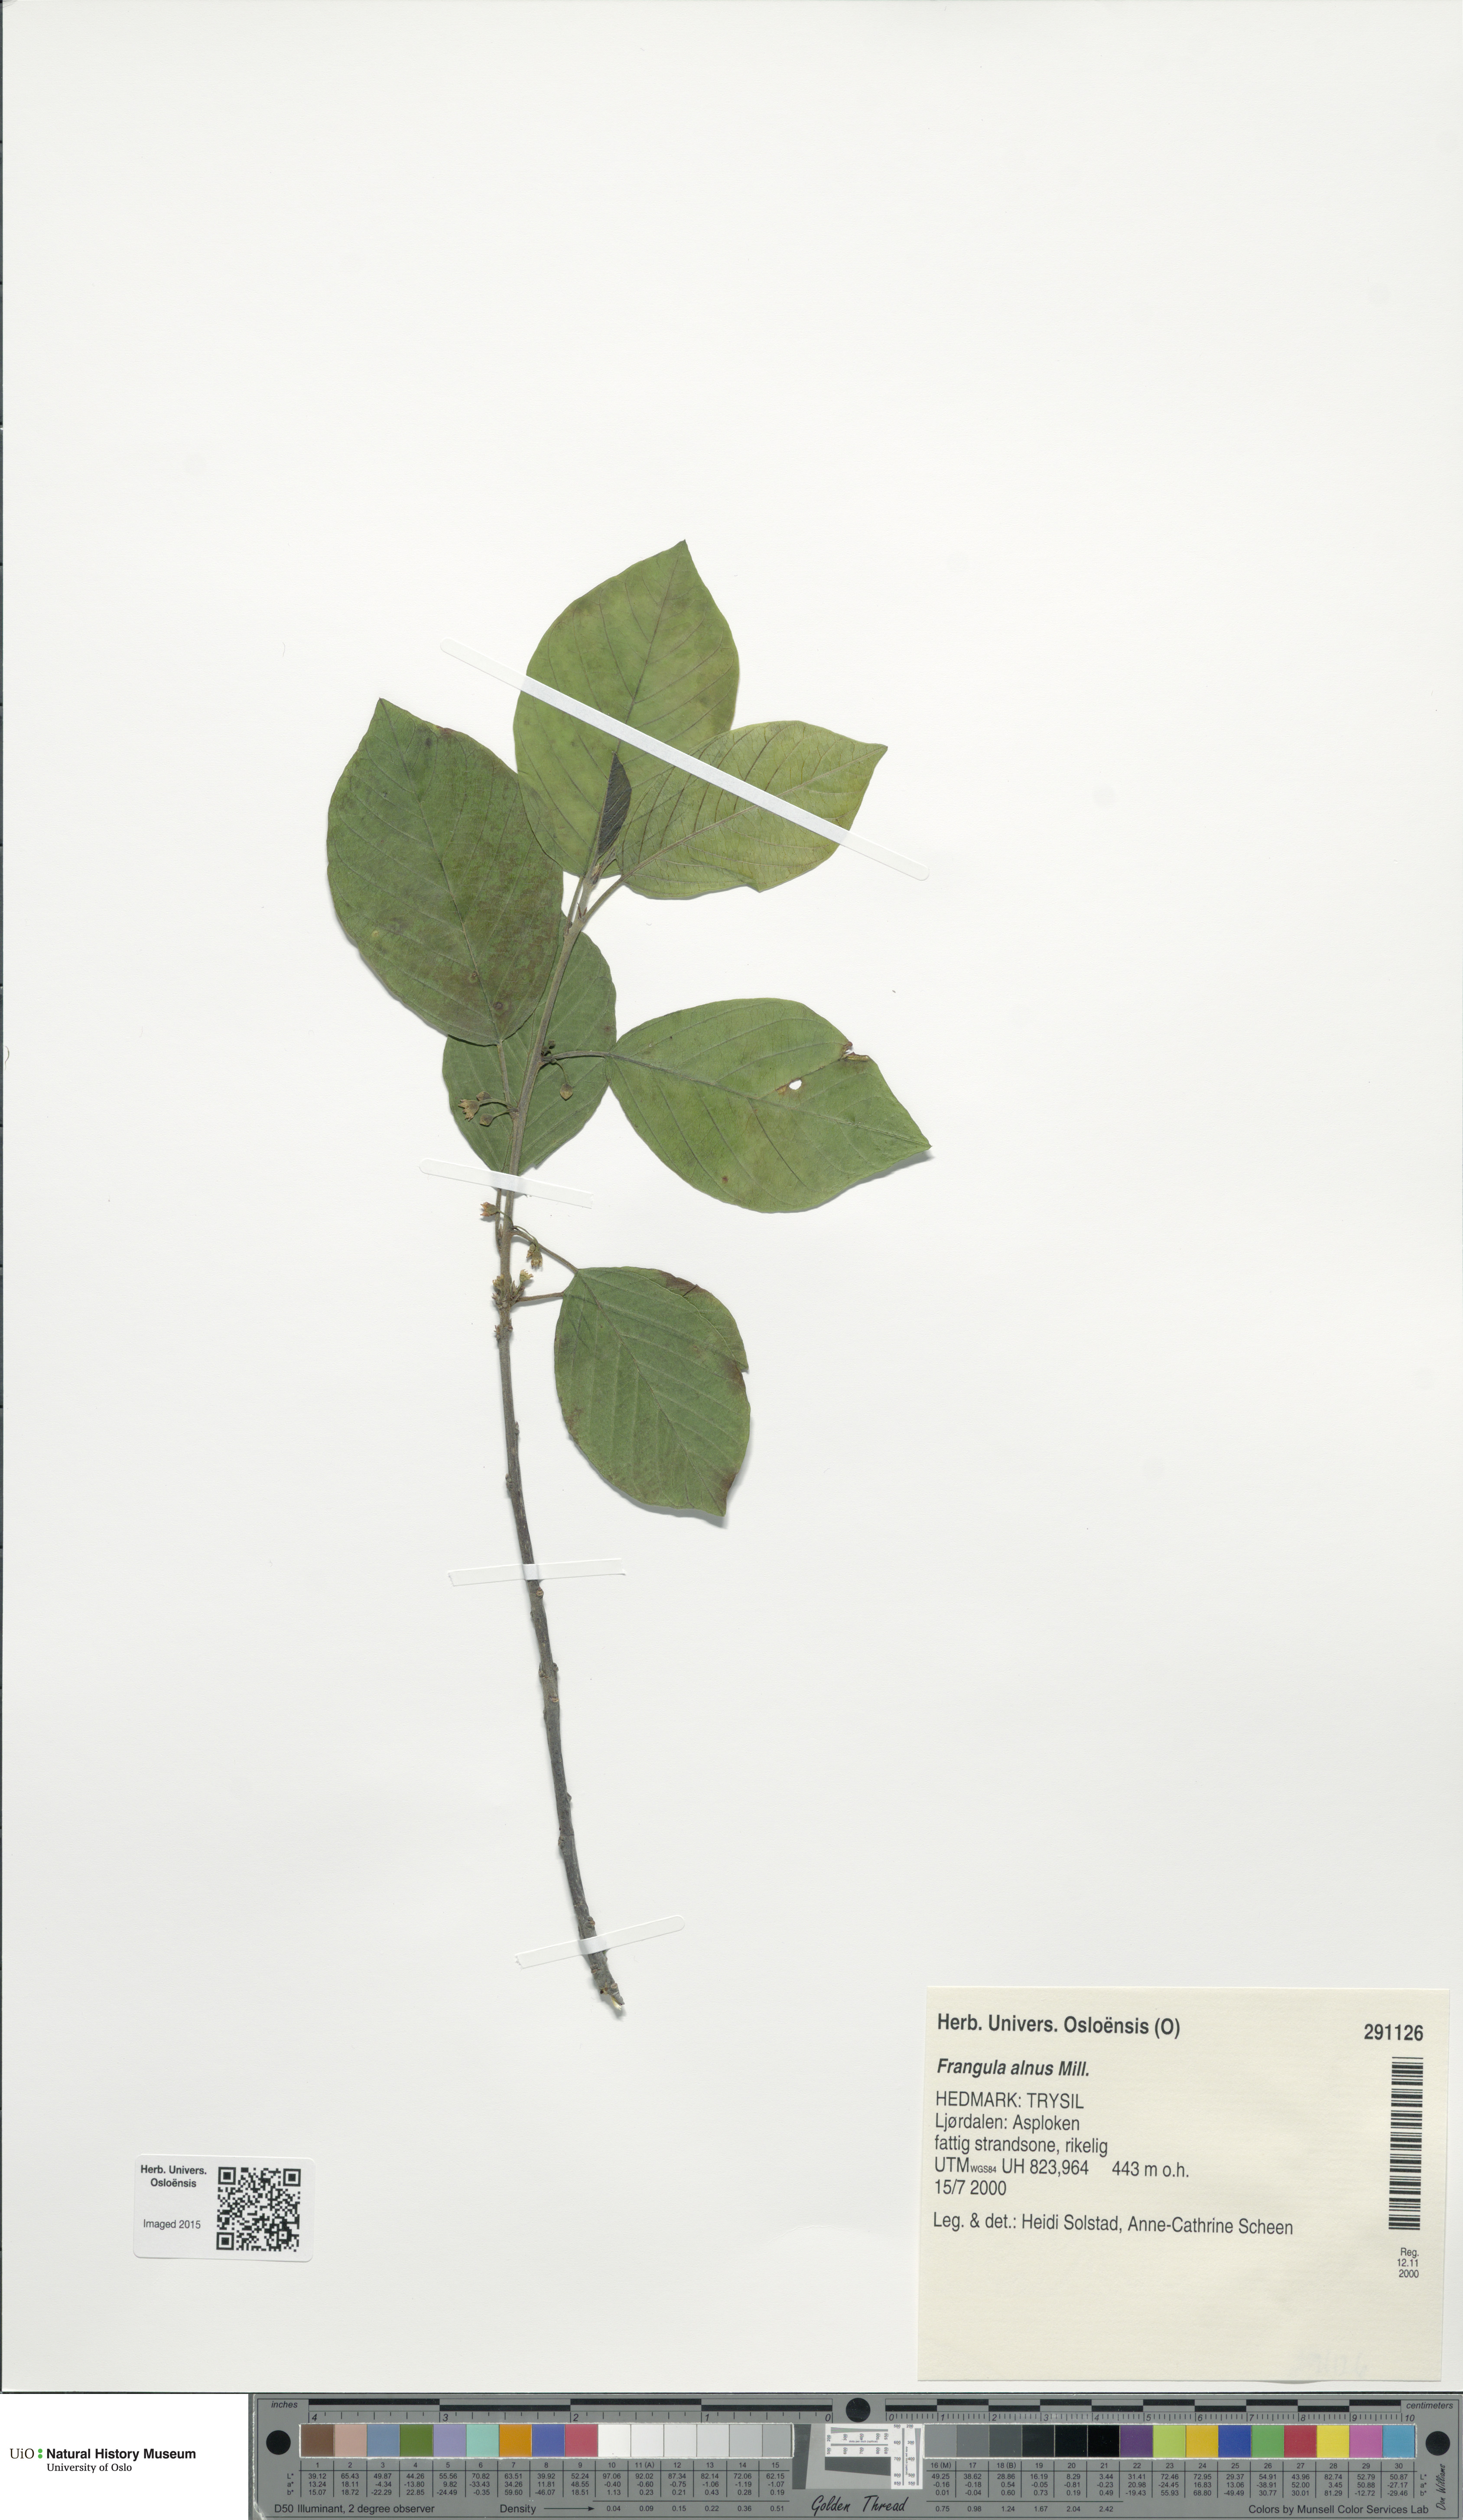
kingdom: Plantae
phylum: Tracheophyta
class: Magnoliopsida
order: Rosales
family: Rhamnaceae
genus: Frangula
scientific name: Frangula alnus
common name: Alder buckthorn
